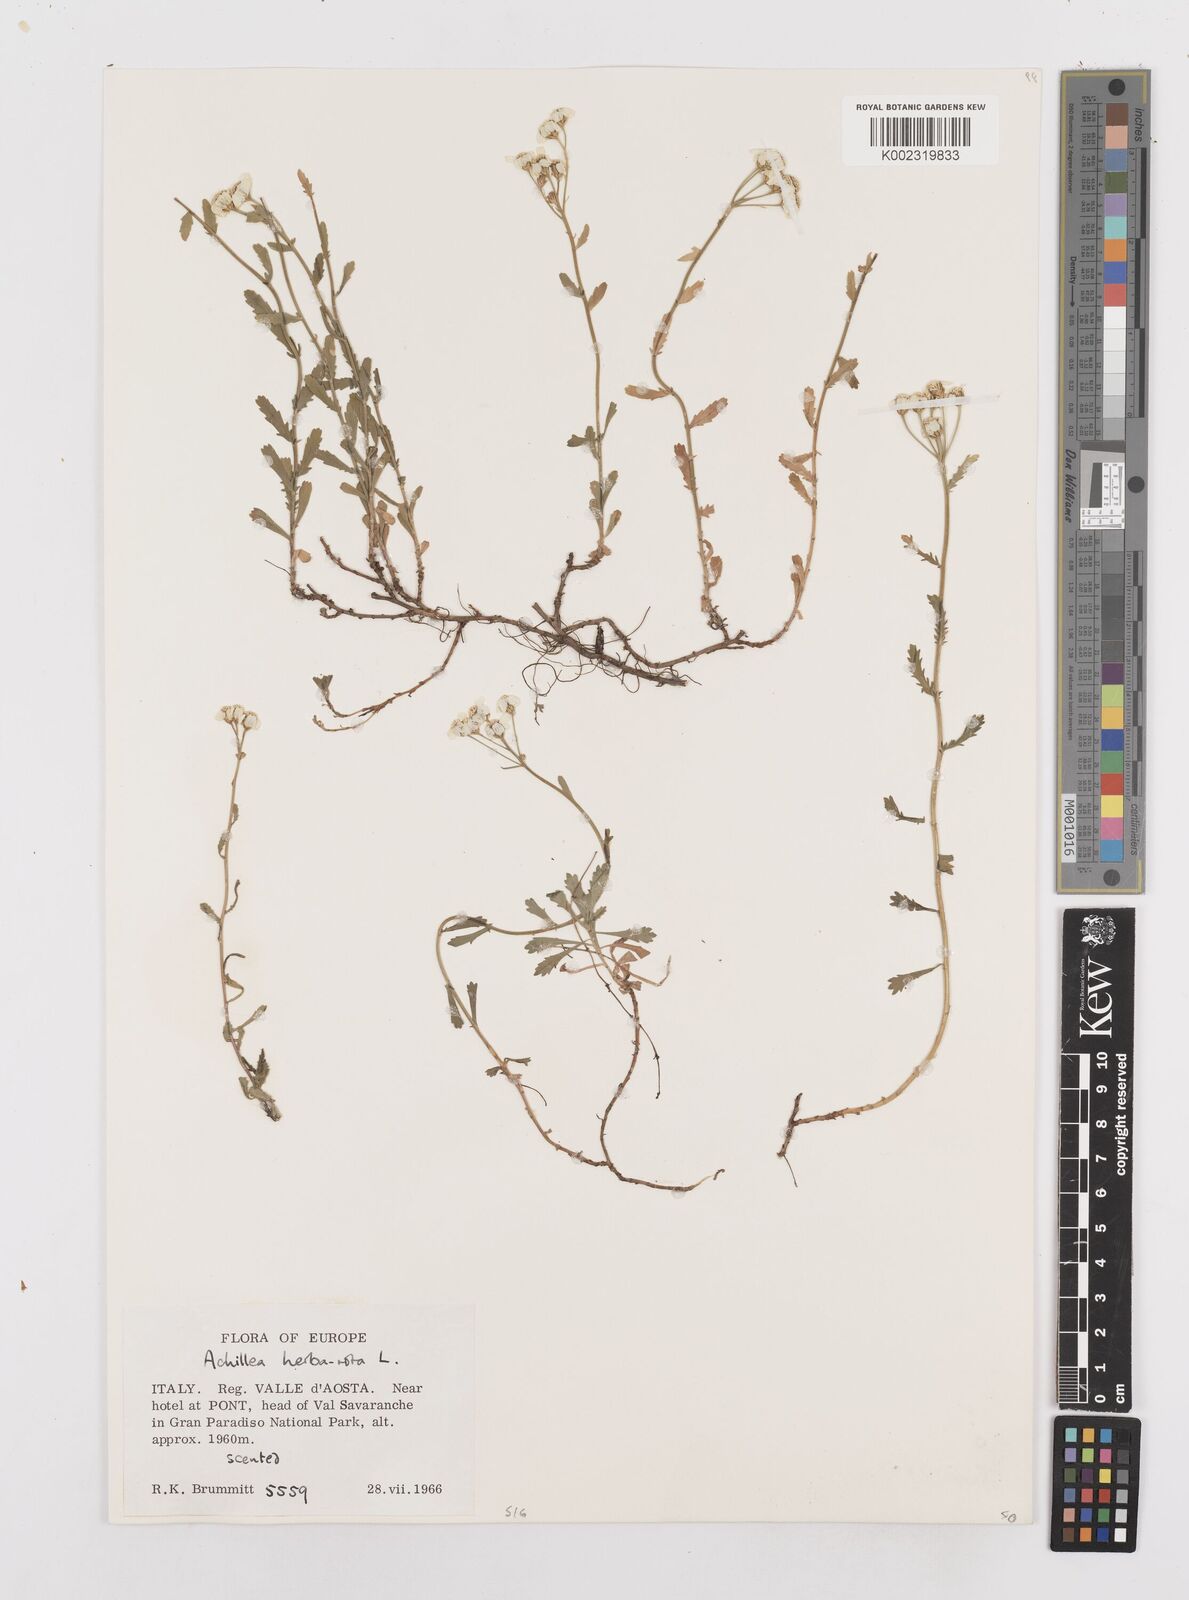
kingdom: Plantae
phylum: Tracheophyta
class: Magnoliopsida
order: Asterales
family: Asteraceae
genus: Achillea
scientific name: Achillea erba-rotta
